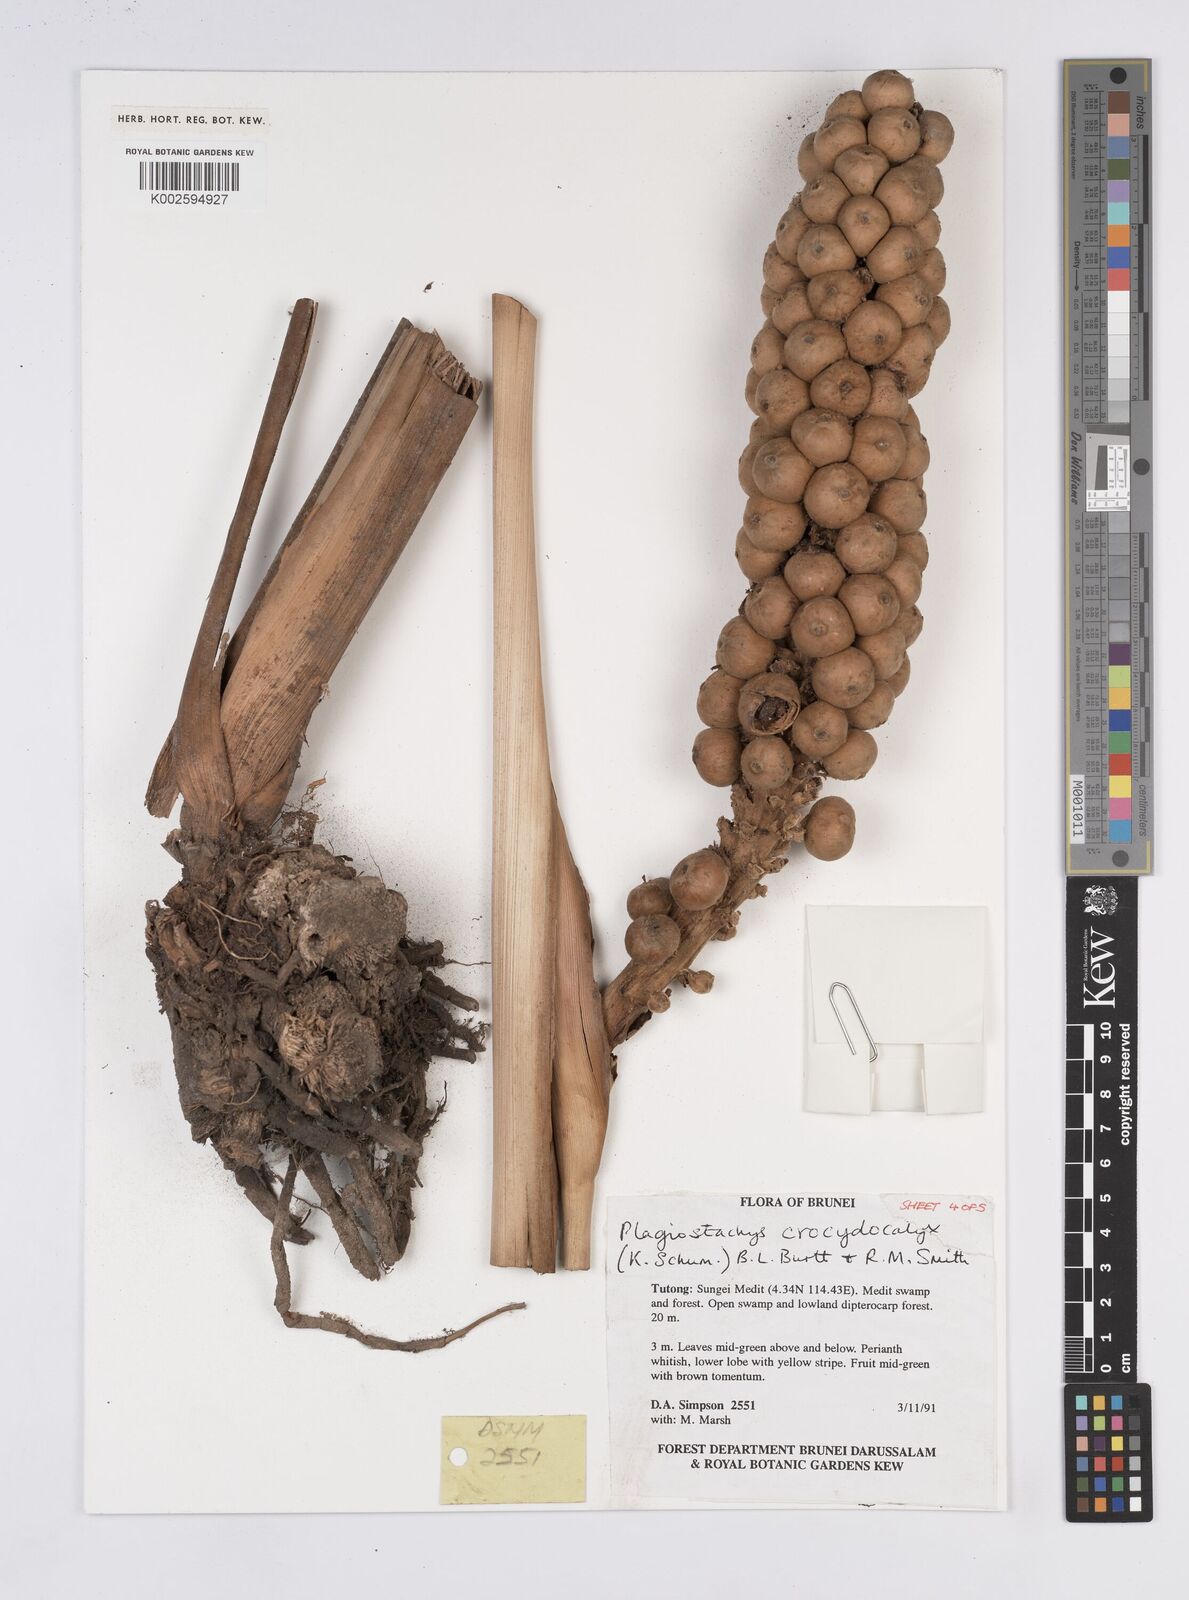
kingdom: Plantae
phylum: Tracheophyta
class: Liliopsida
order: Zingiberales
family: Zingiberaceae
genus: Plagiostachys
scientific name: Plagiostachys crocydocalyx
